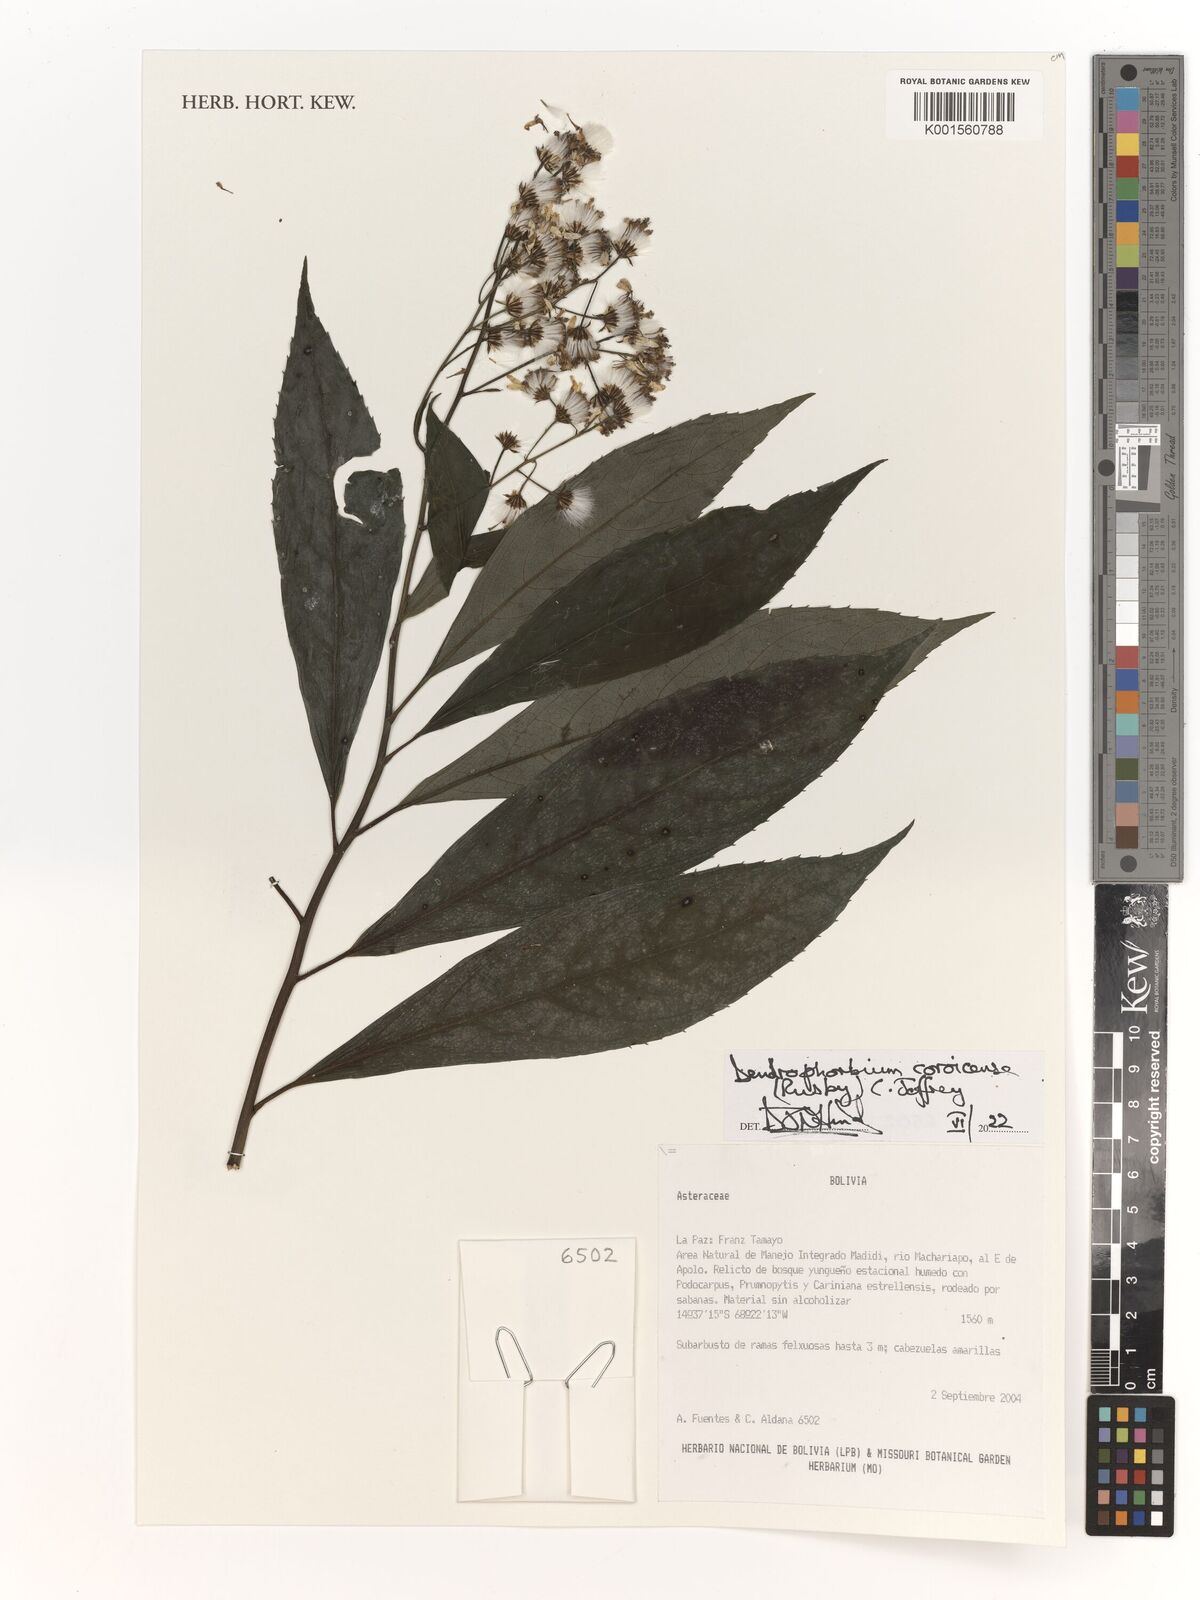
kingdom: Plantae
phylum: Tracheophyta
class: Magnoliopsida
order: Asterales
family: Asteraceae
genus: Dendrophorbium
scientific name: Dendrophorbium coroicense
